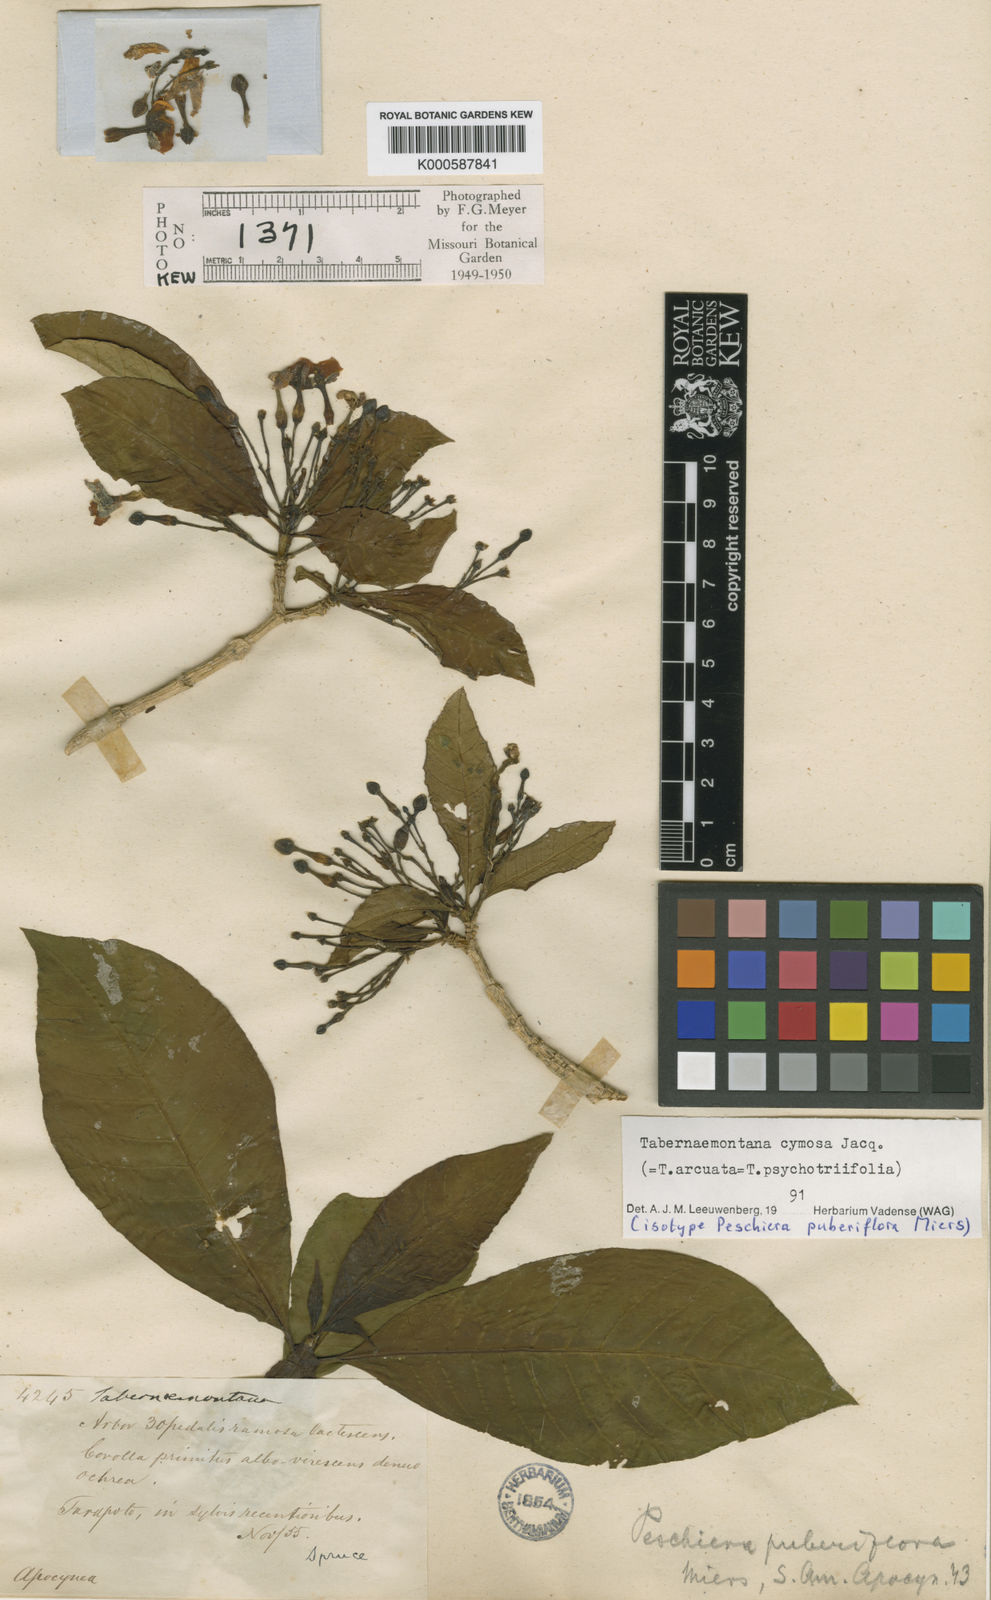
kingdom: Plantae
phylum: Tracheophyta
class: Magnoliopsida
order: Gentianales
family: Apocynaceae
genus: Tabernaemontana
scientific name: Tabernaemontana cymosa
